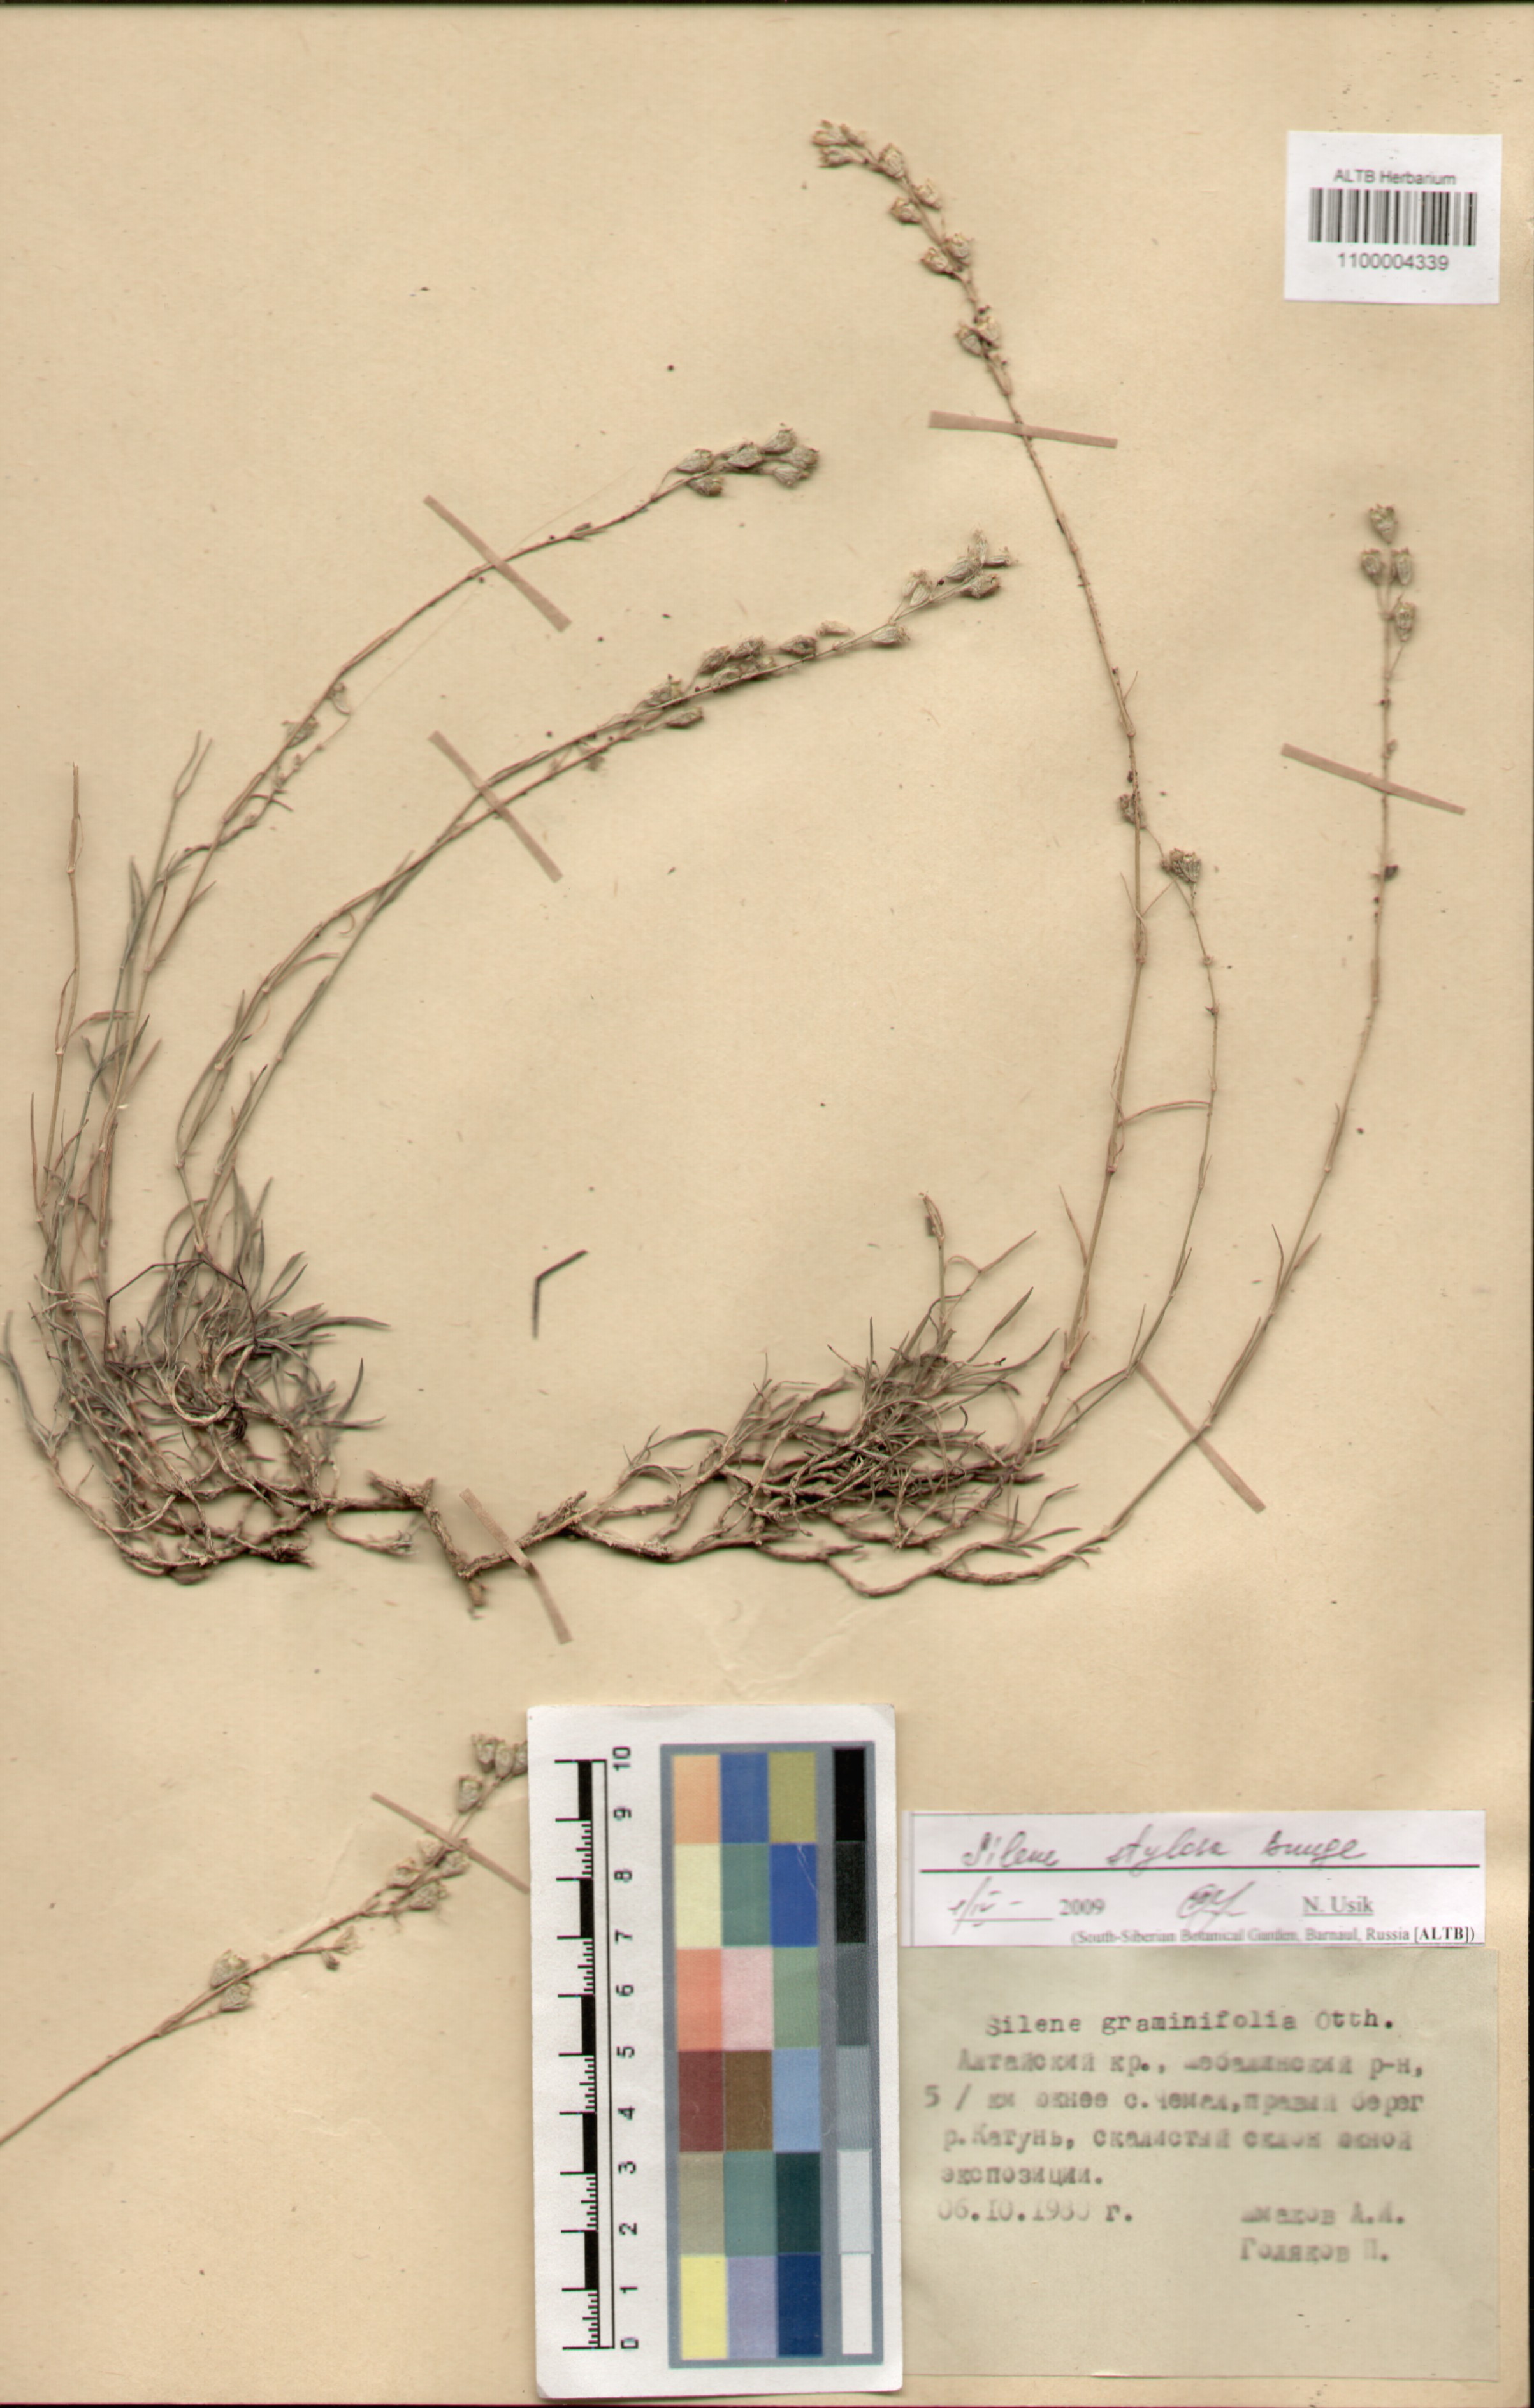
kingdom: Plantae
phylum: Tracheophyta
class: Magnoliopsida
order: Caryophyllales
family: Caryophyllaceae
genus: Silene
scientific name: Silene graminifolia
